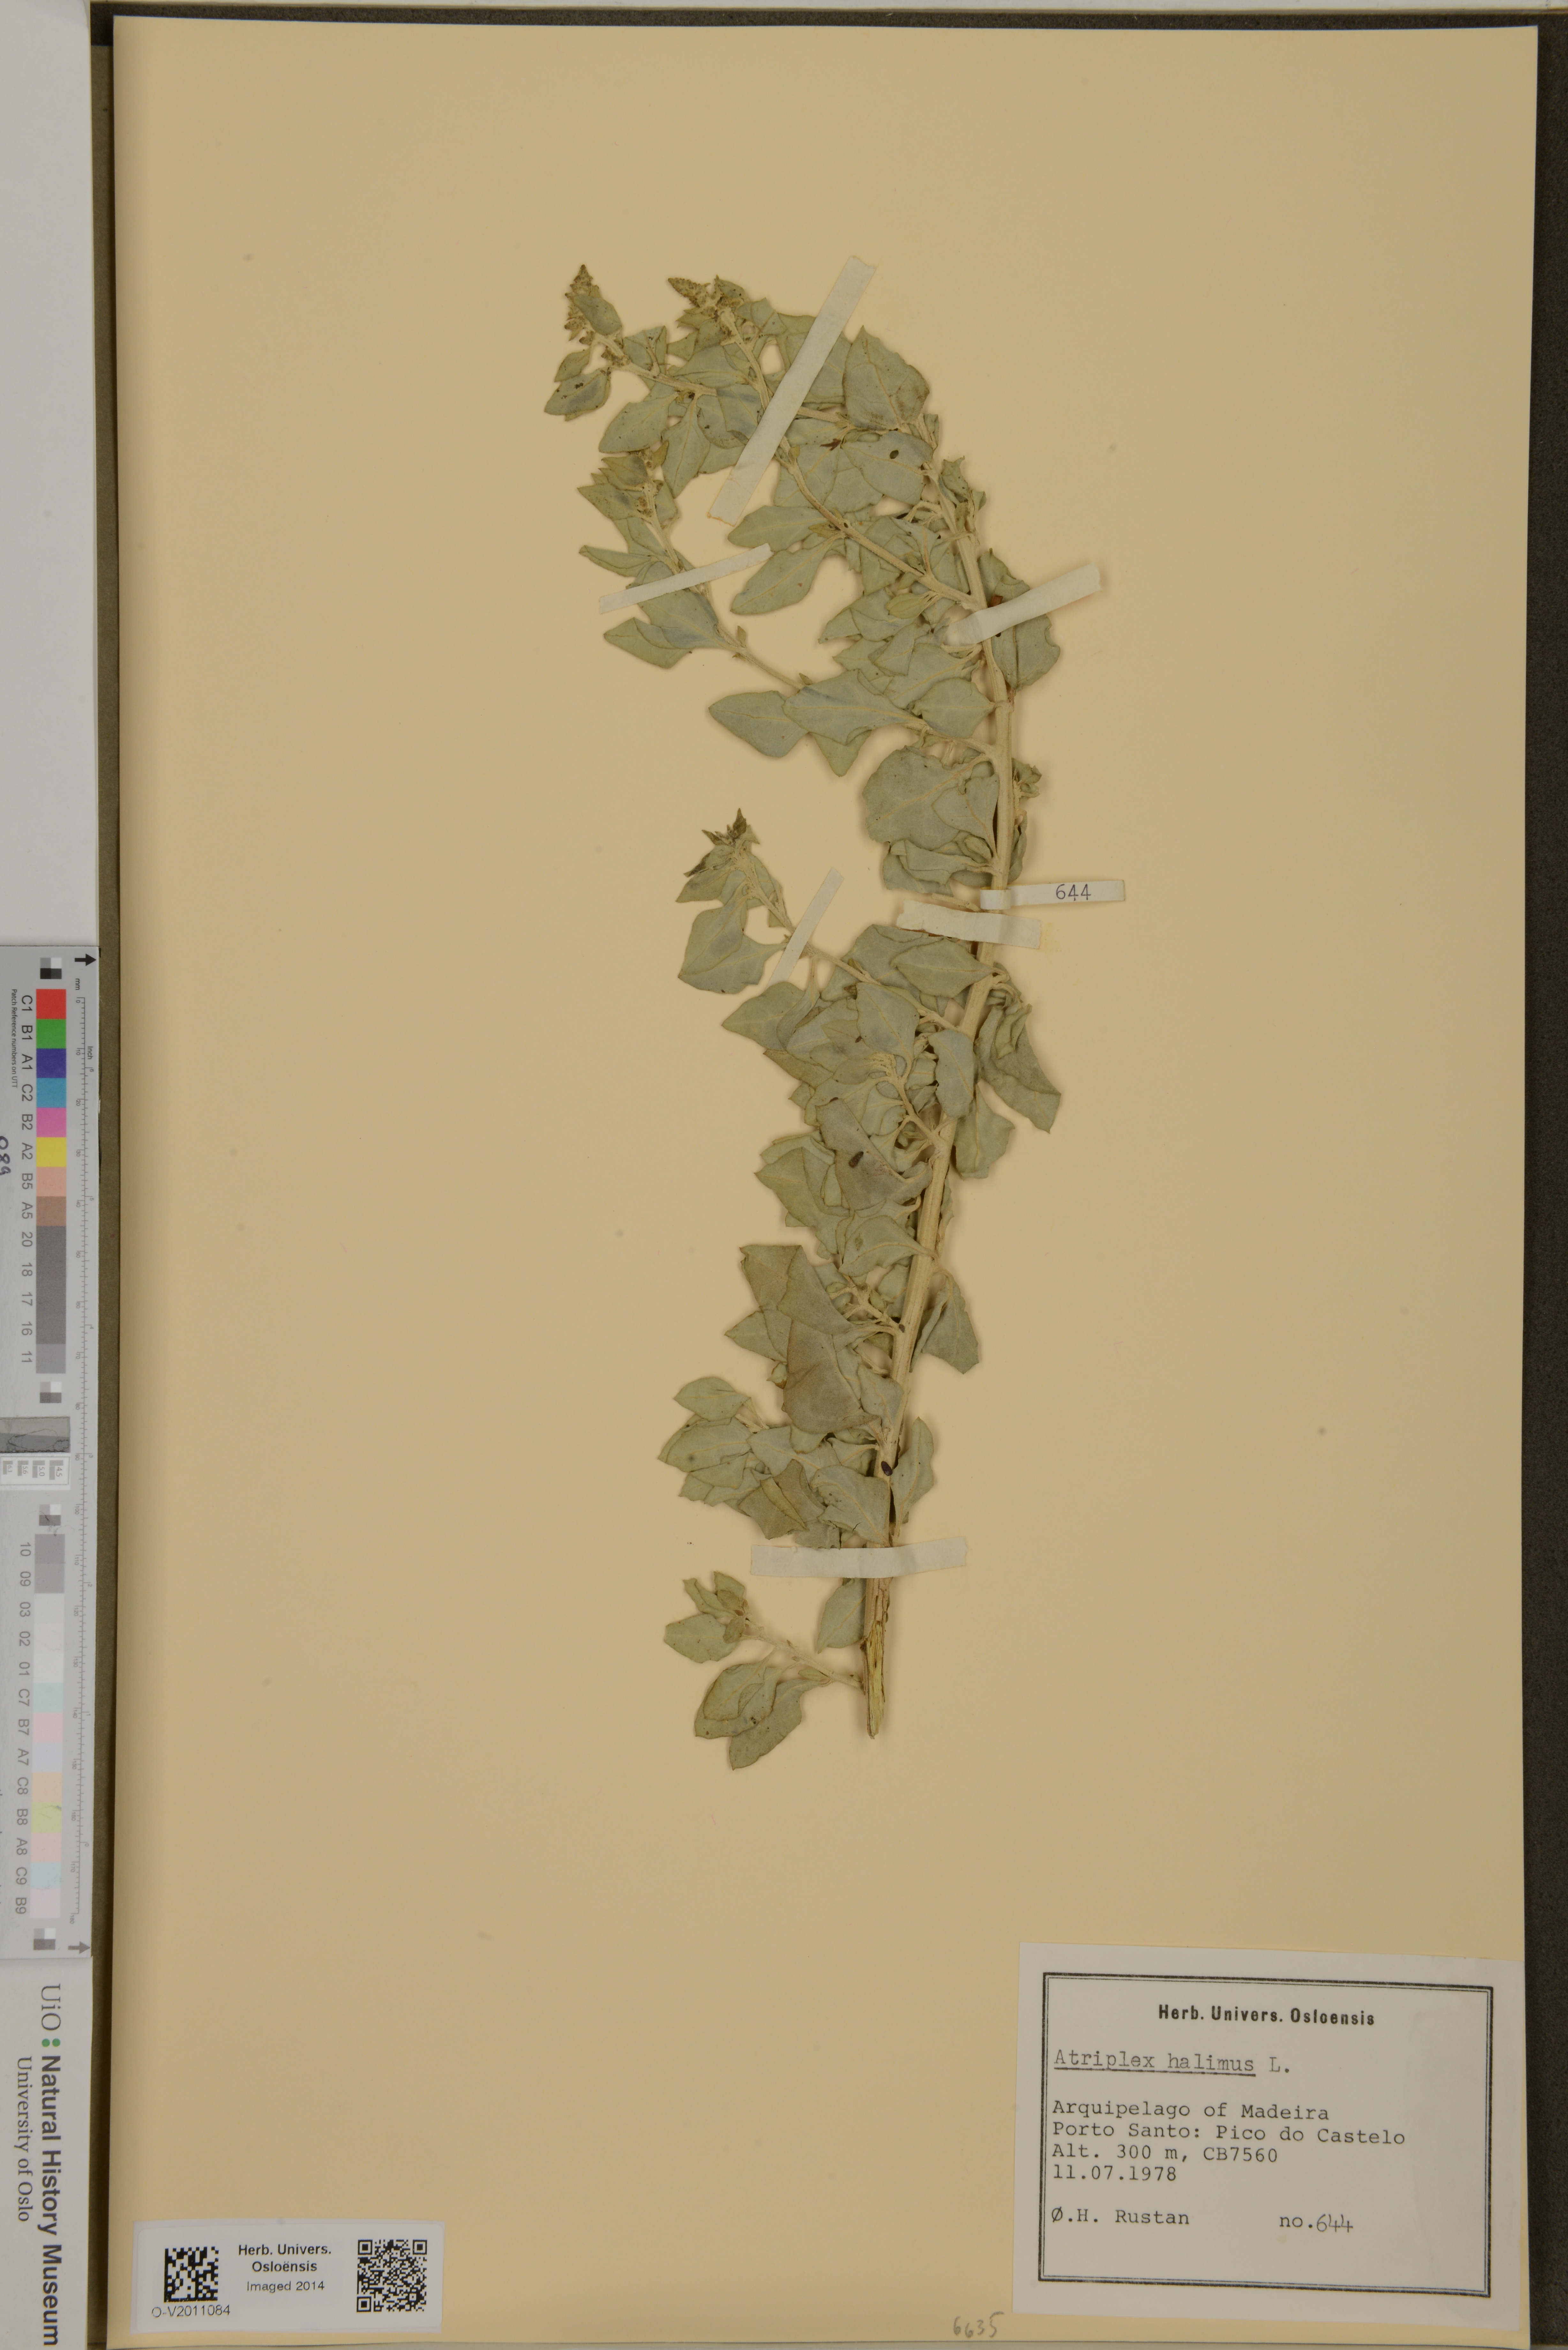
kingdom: Plantae
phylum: Tracheophyta
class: Magnoliopsida
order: Caryophyllales
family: Amaranthaceae
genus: Atriplex
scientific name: Atriplex halimus
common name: Shrubby orache
